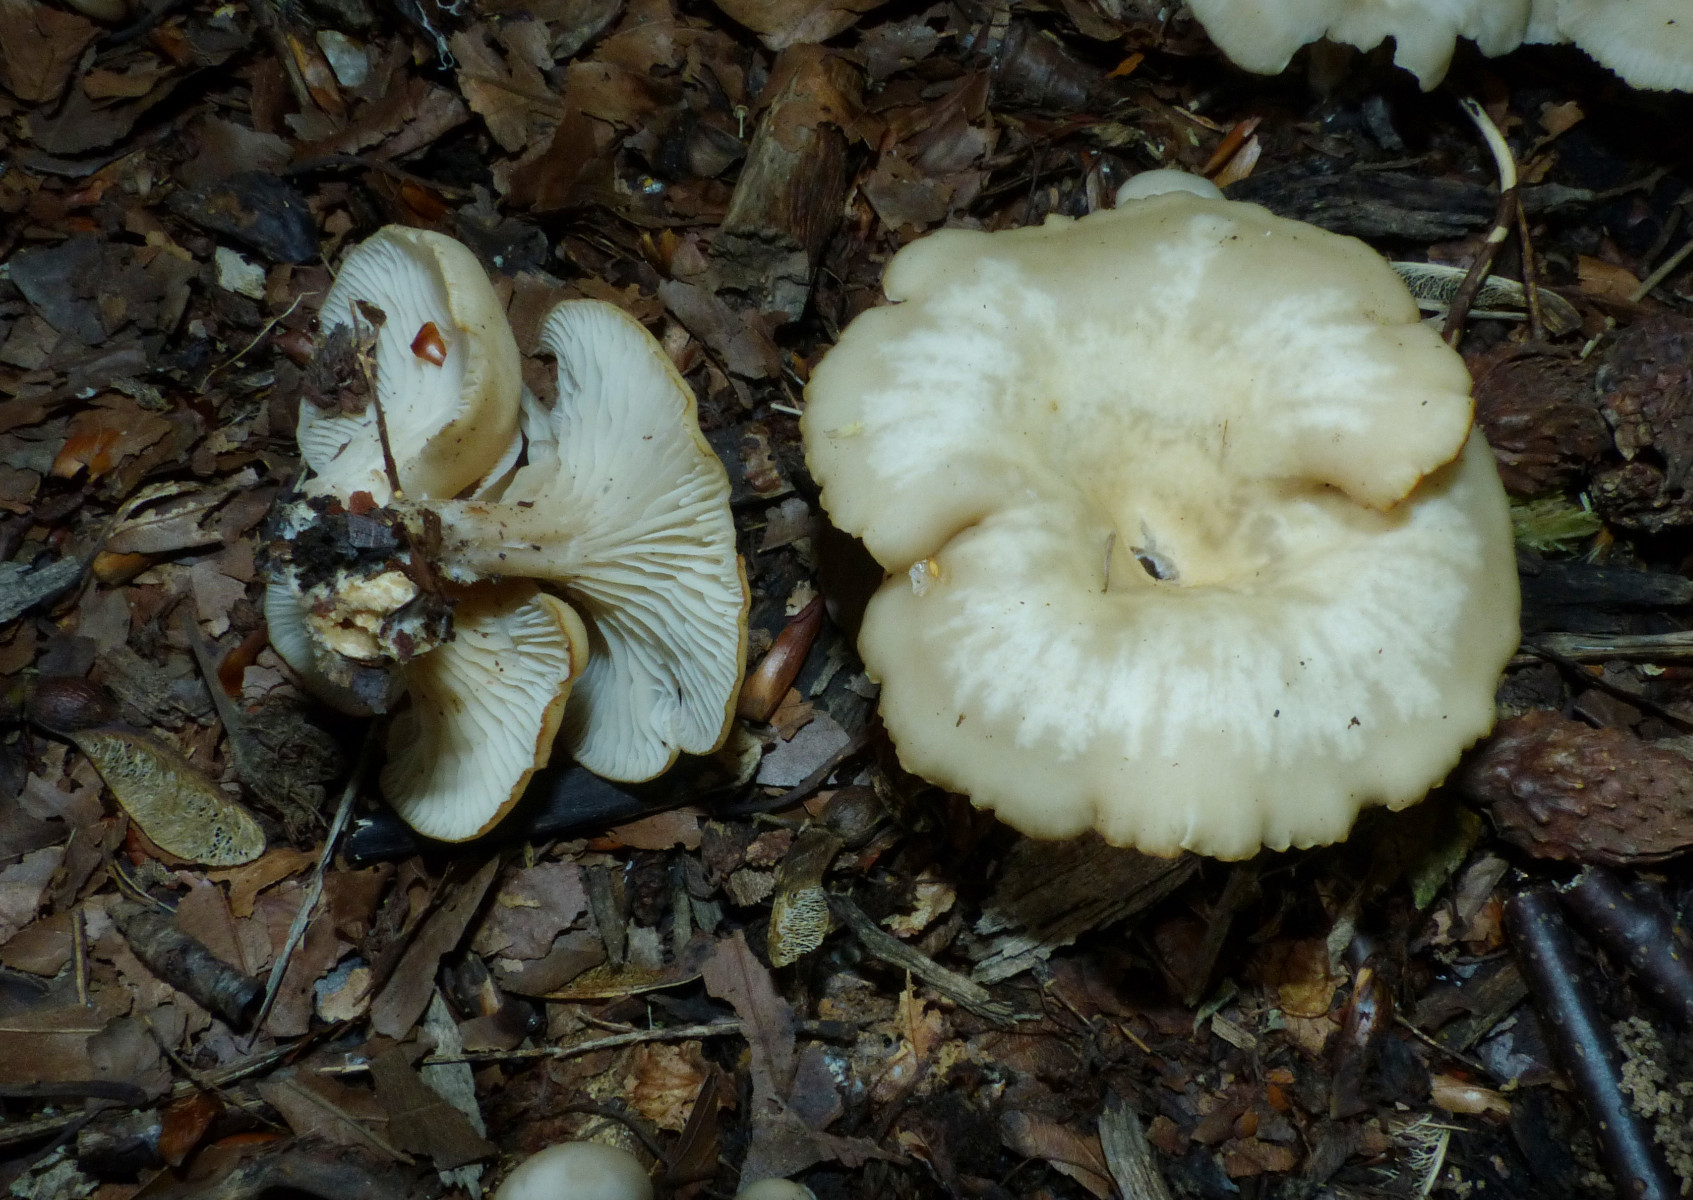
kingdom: Fungi
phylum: Basidiomycota
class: Agaricomycetes
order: Agaricales
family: Tricholomataceae
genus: Clitocybe
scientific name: Clitocybe phaeophthalma
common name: stinkende tragthat
